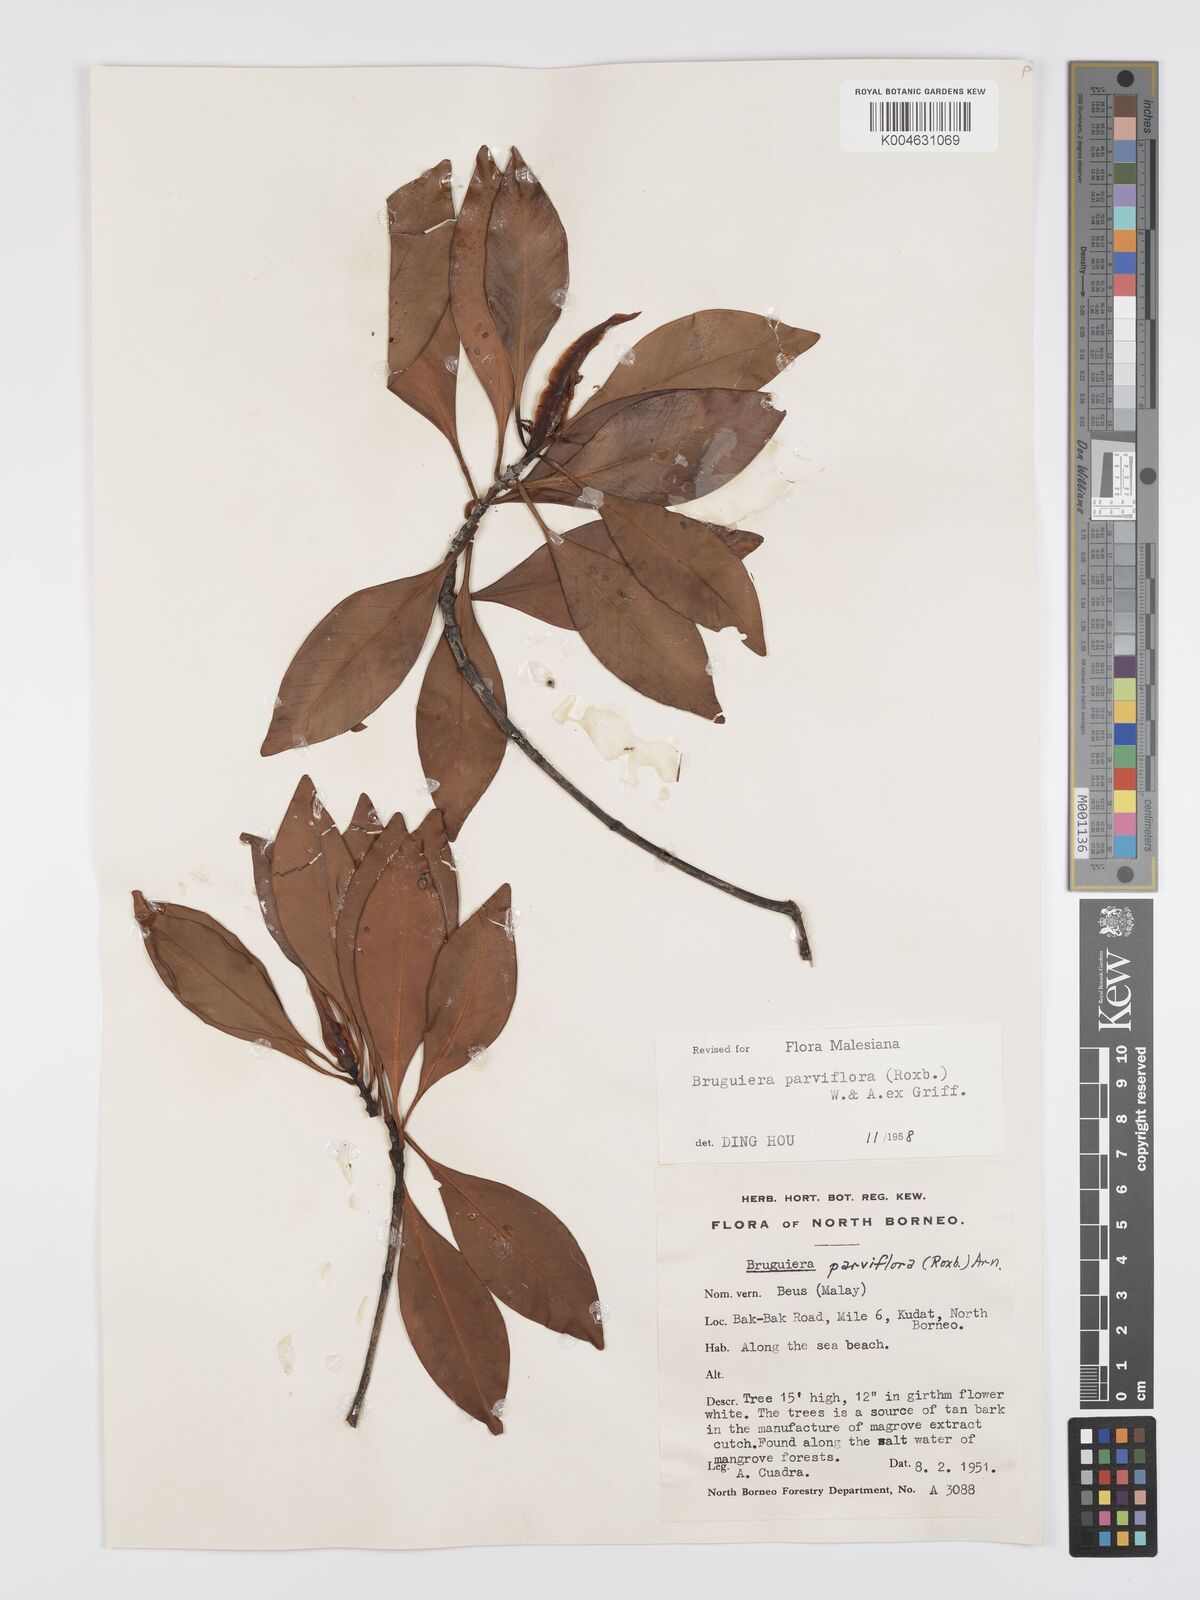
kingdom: Plantae
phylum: Tracheophyta
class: Magnoliopsida
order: Malpighiales
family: Rhizophoraceae
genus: Bruguiera
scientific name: Bruguiera parviflora
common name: Smallflower bruguiera
